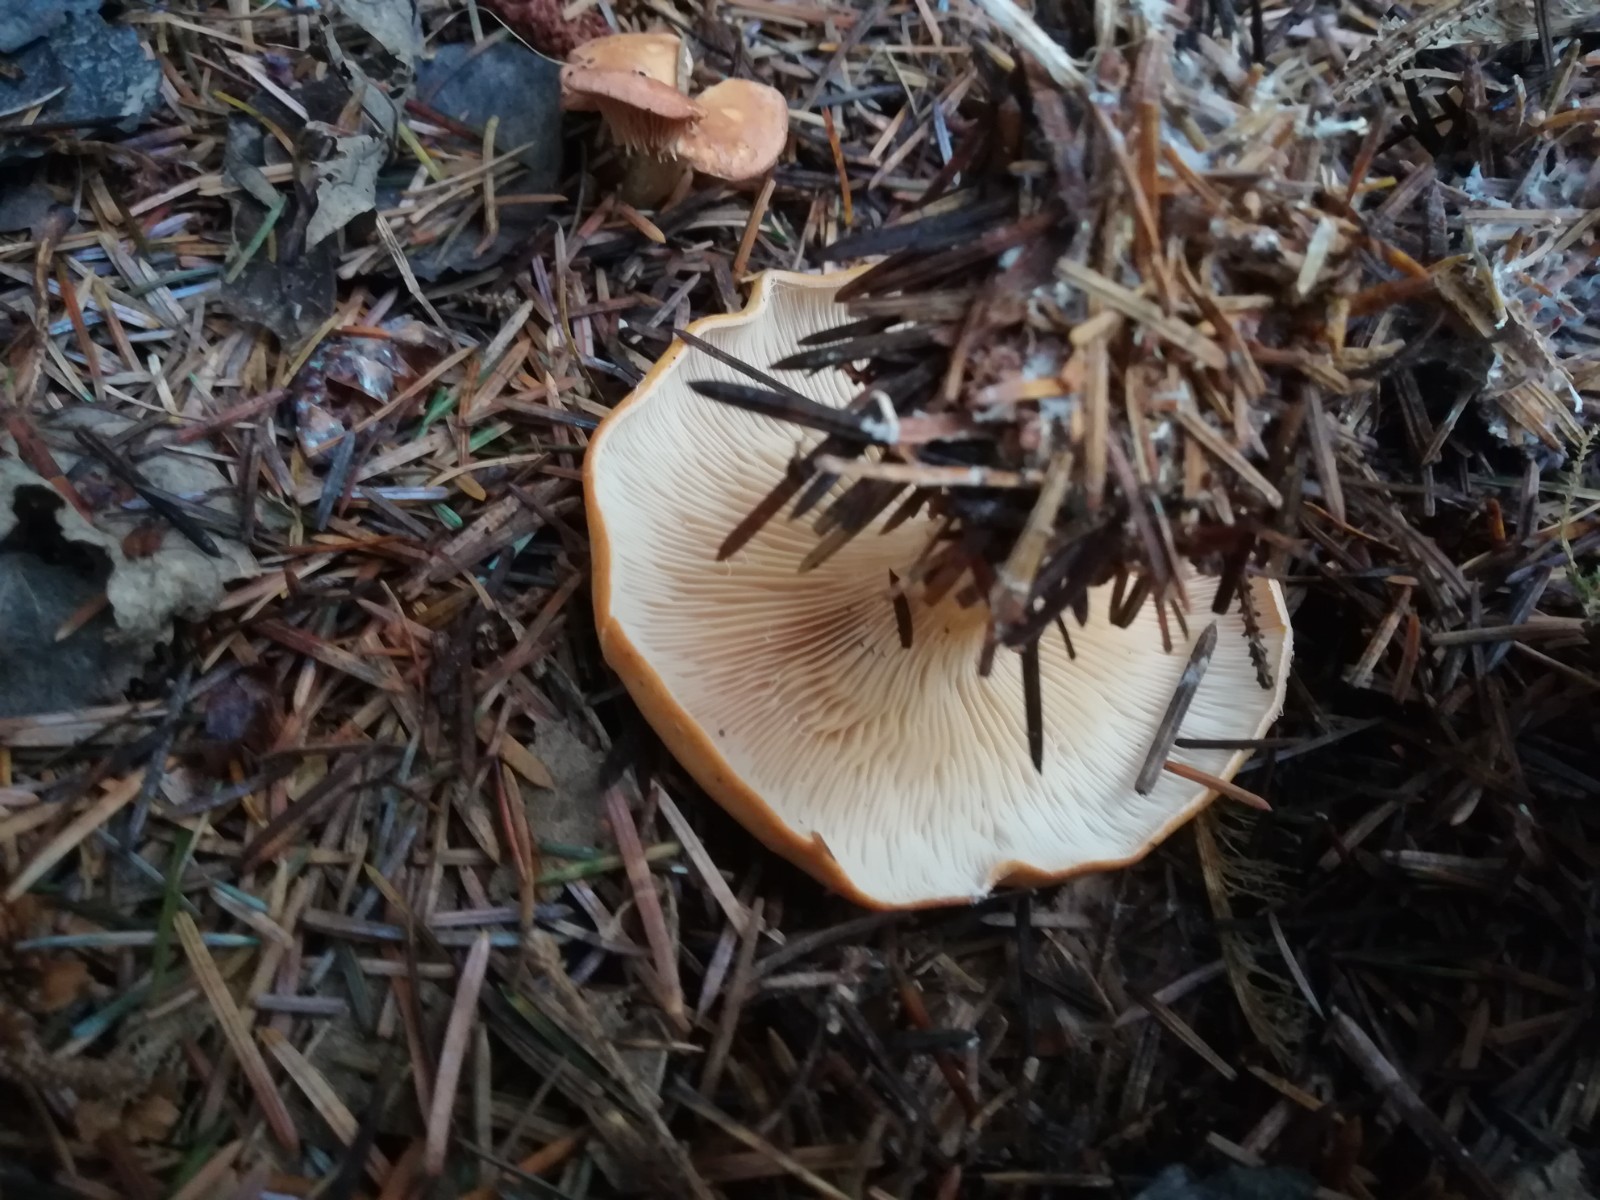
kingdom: Fungi
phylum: Basidiomycota
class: Agaricomycetes
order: Agaricales
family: Tricholomataceae
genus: Paralepista
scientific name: Paralepista flaccida
